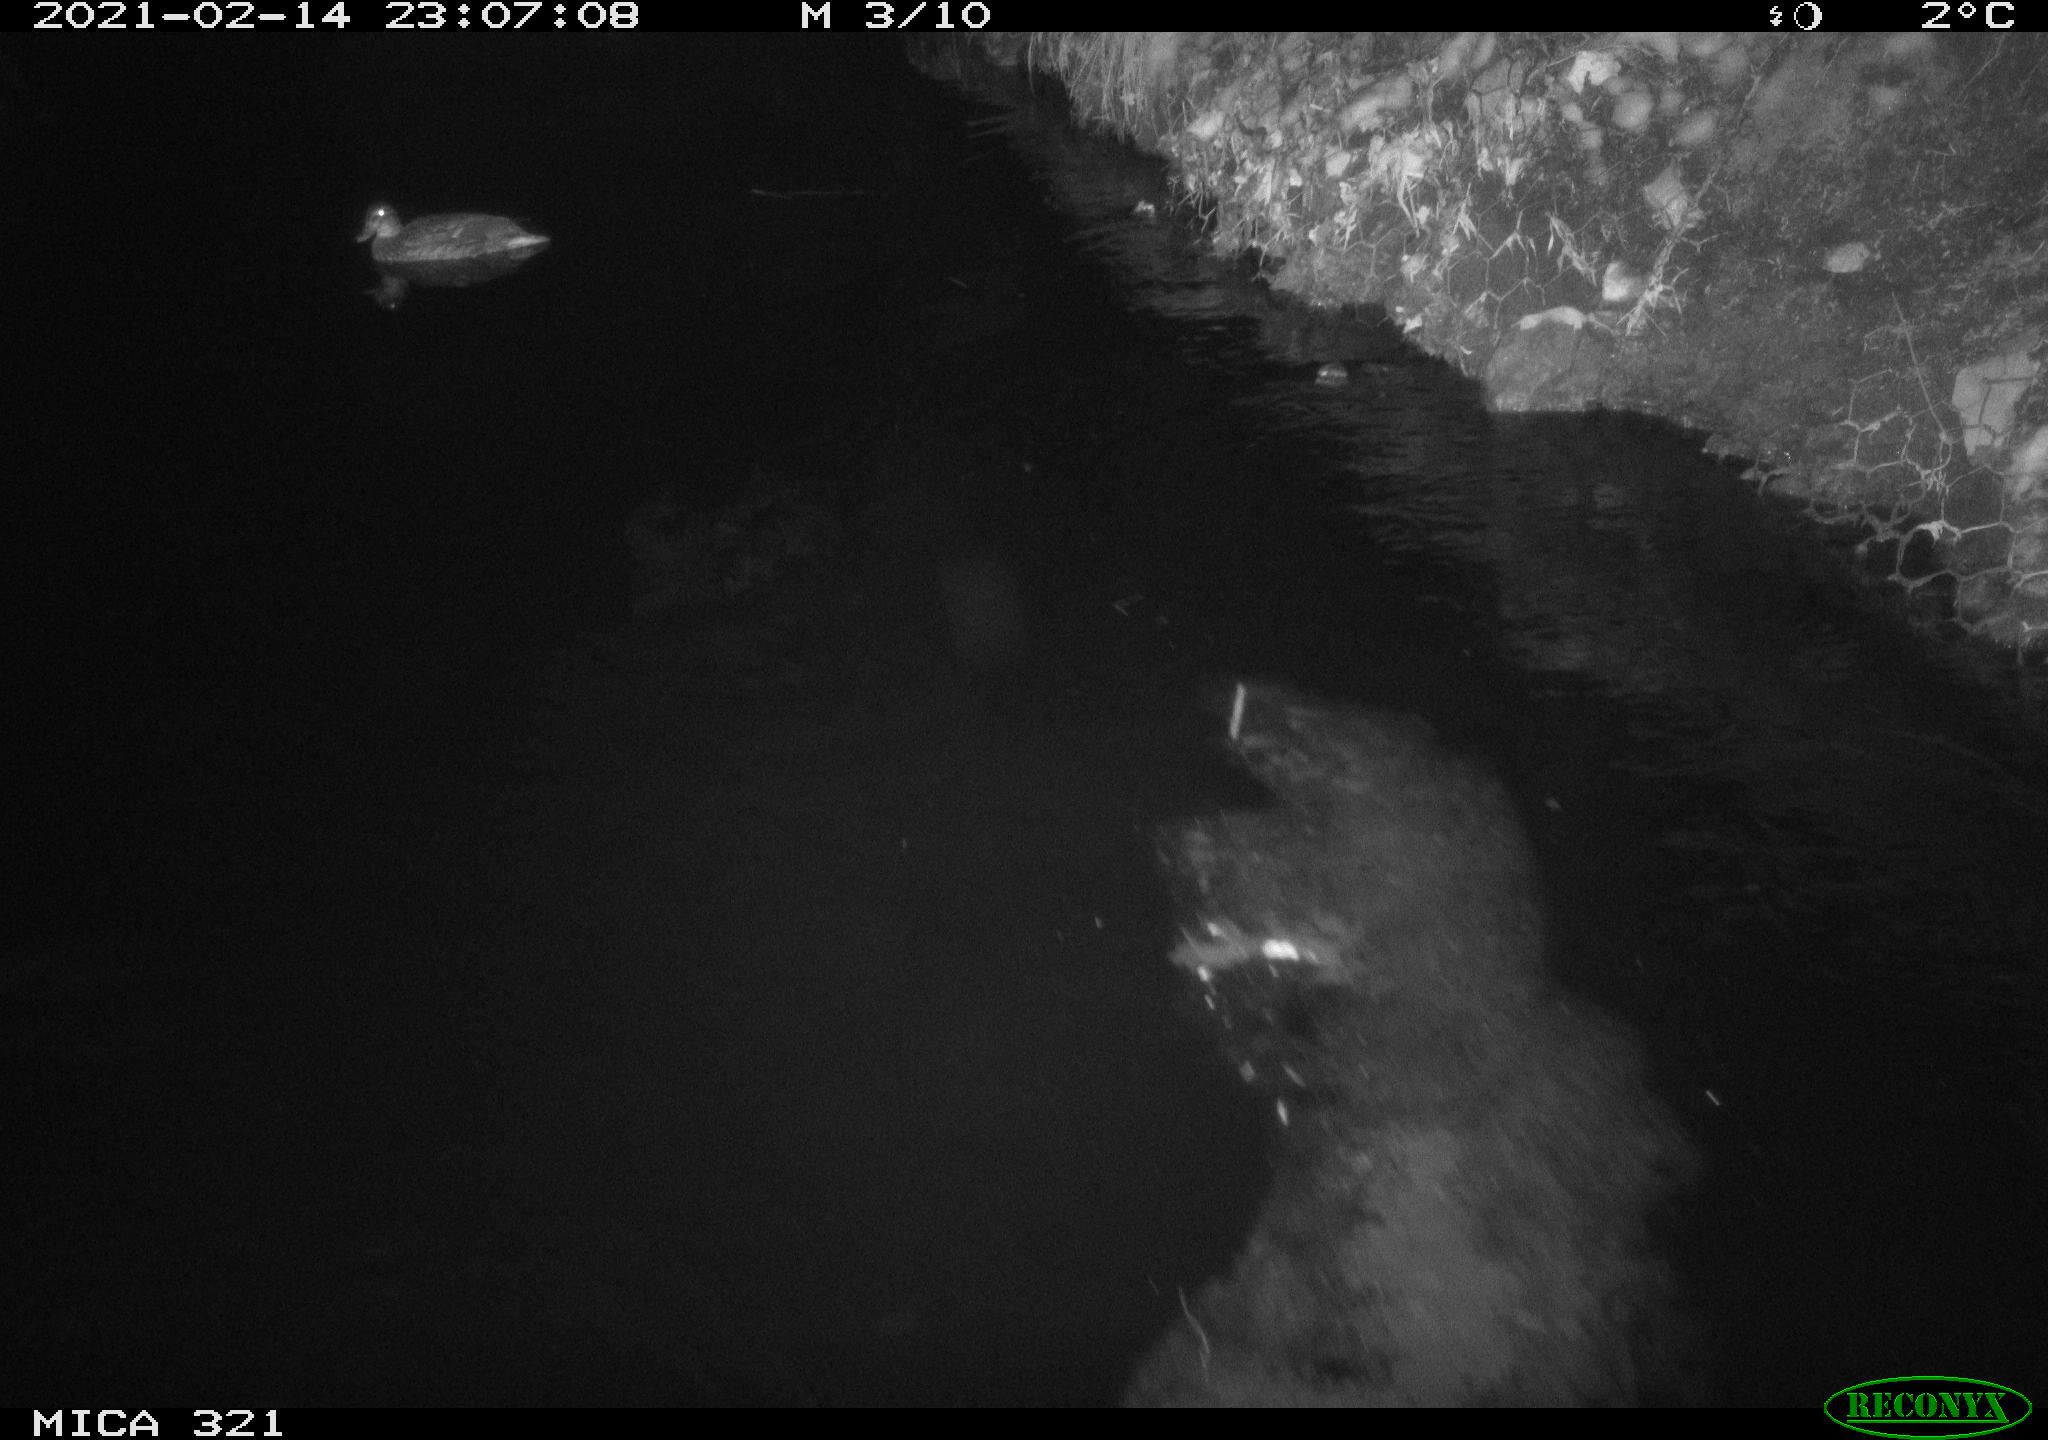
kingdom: Animalia
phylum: Chordata
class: Aves
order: Anseriformes
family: Anatidae
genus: Anas
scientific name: Anas platyrhynchos
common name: Mallard
